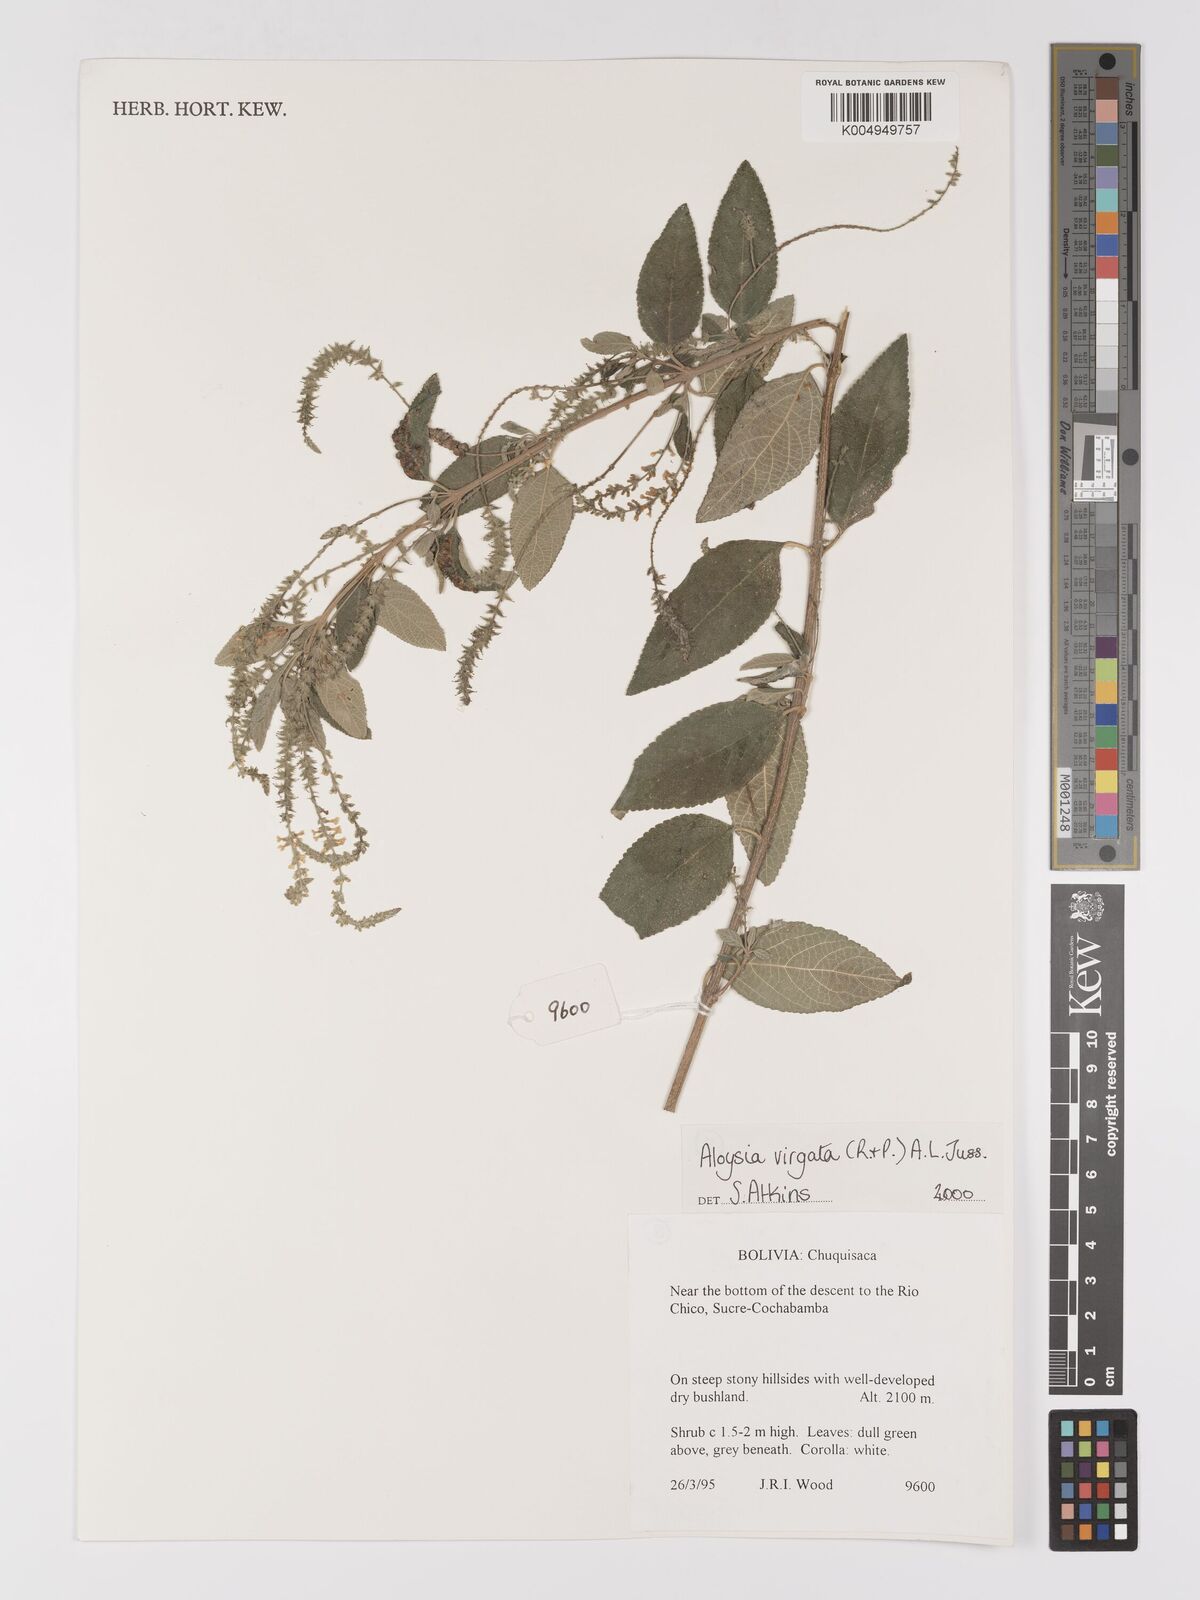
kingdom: Plantae
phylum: Tracheophyta
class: Magnoliopsida
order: Lamiales
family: Verbenaceae
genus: Aloysia
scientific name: Aloysia virgata
